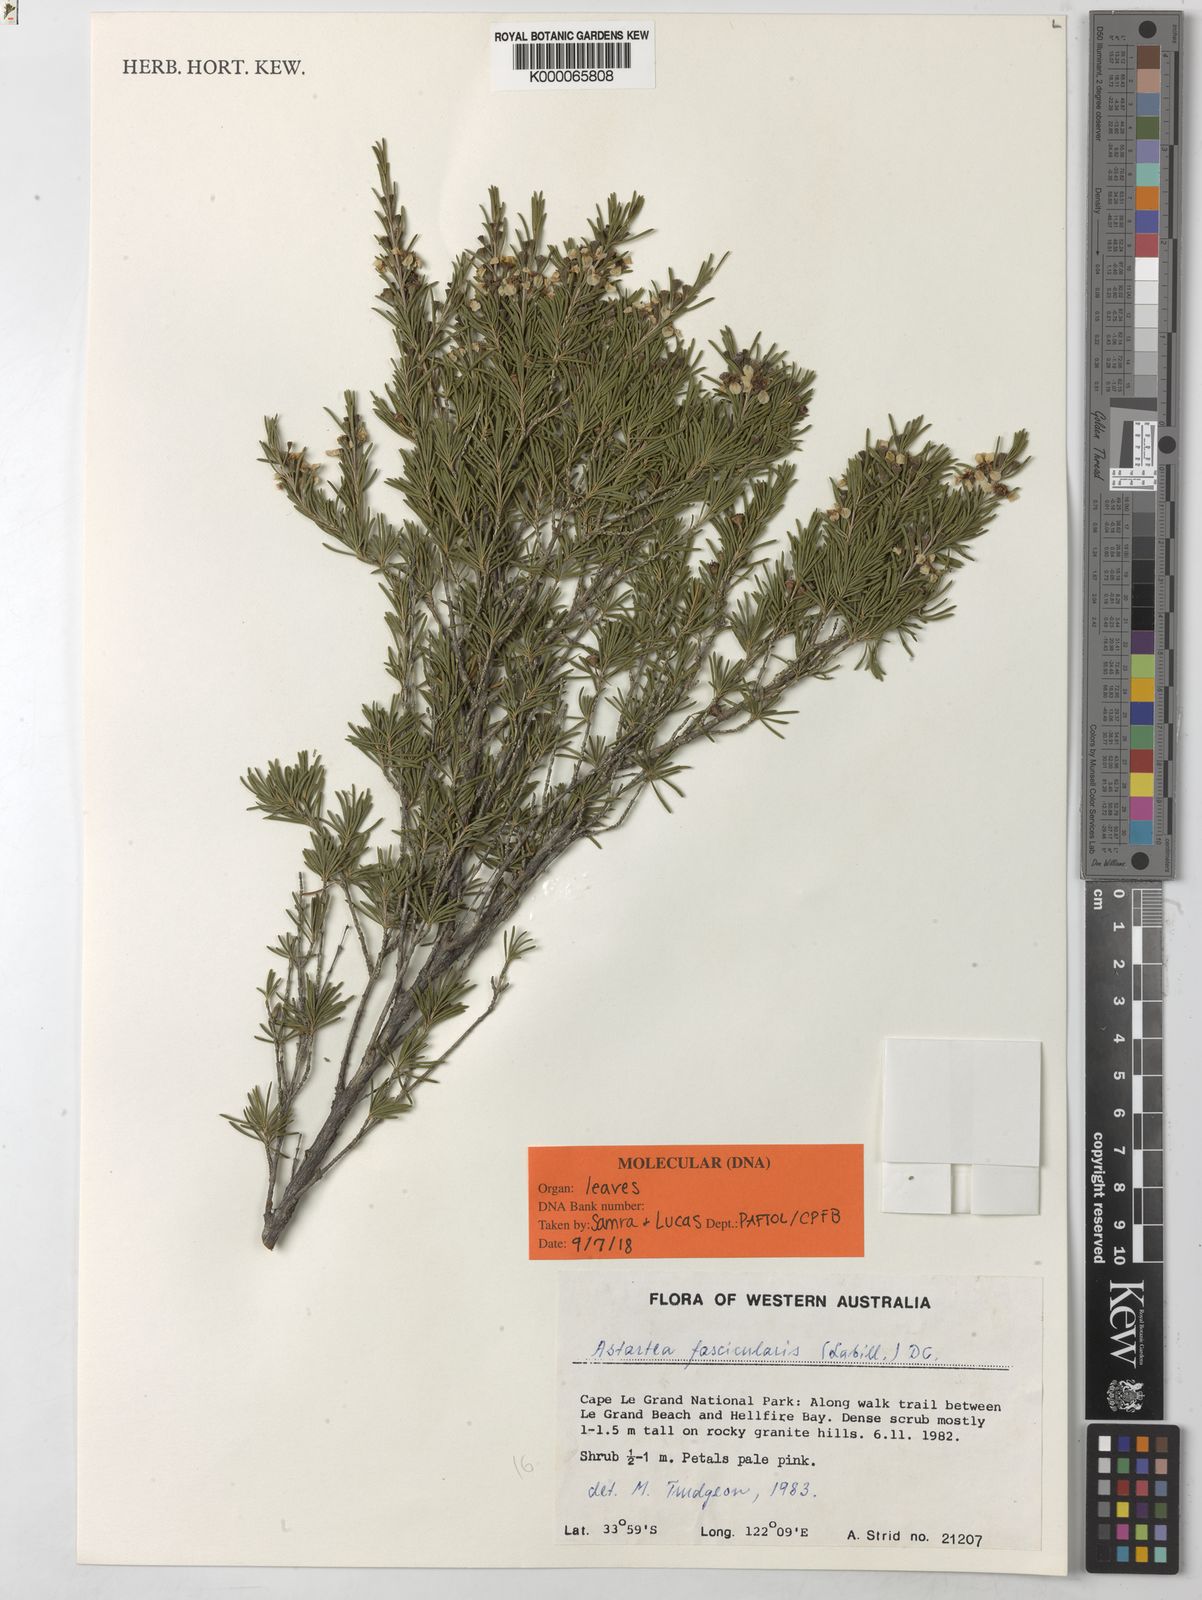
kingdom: Plantae
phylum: Tracheophyta
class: Magnoliopsida
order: Myrtales
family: Myrtaceae
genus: Astartea
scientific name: Astartea fascicularis
